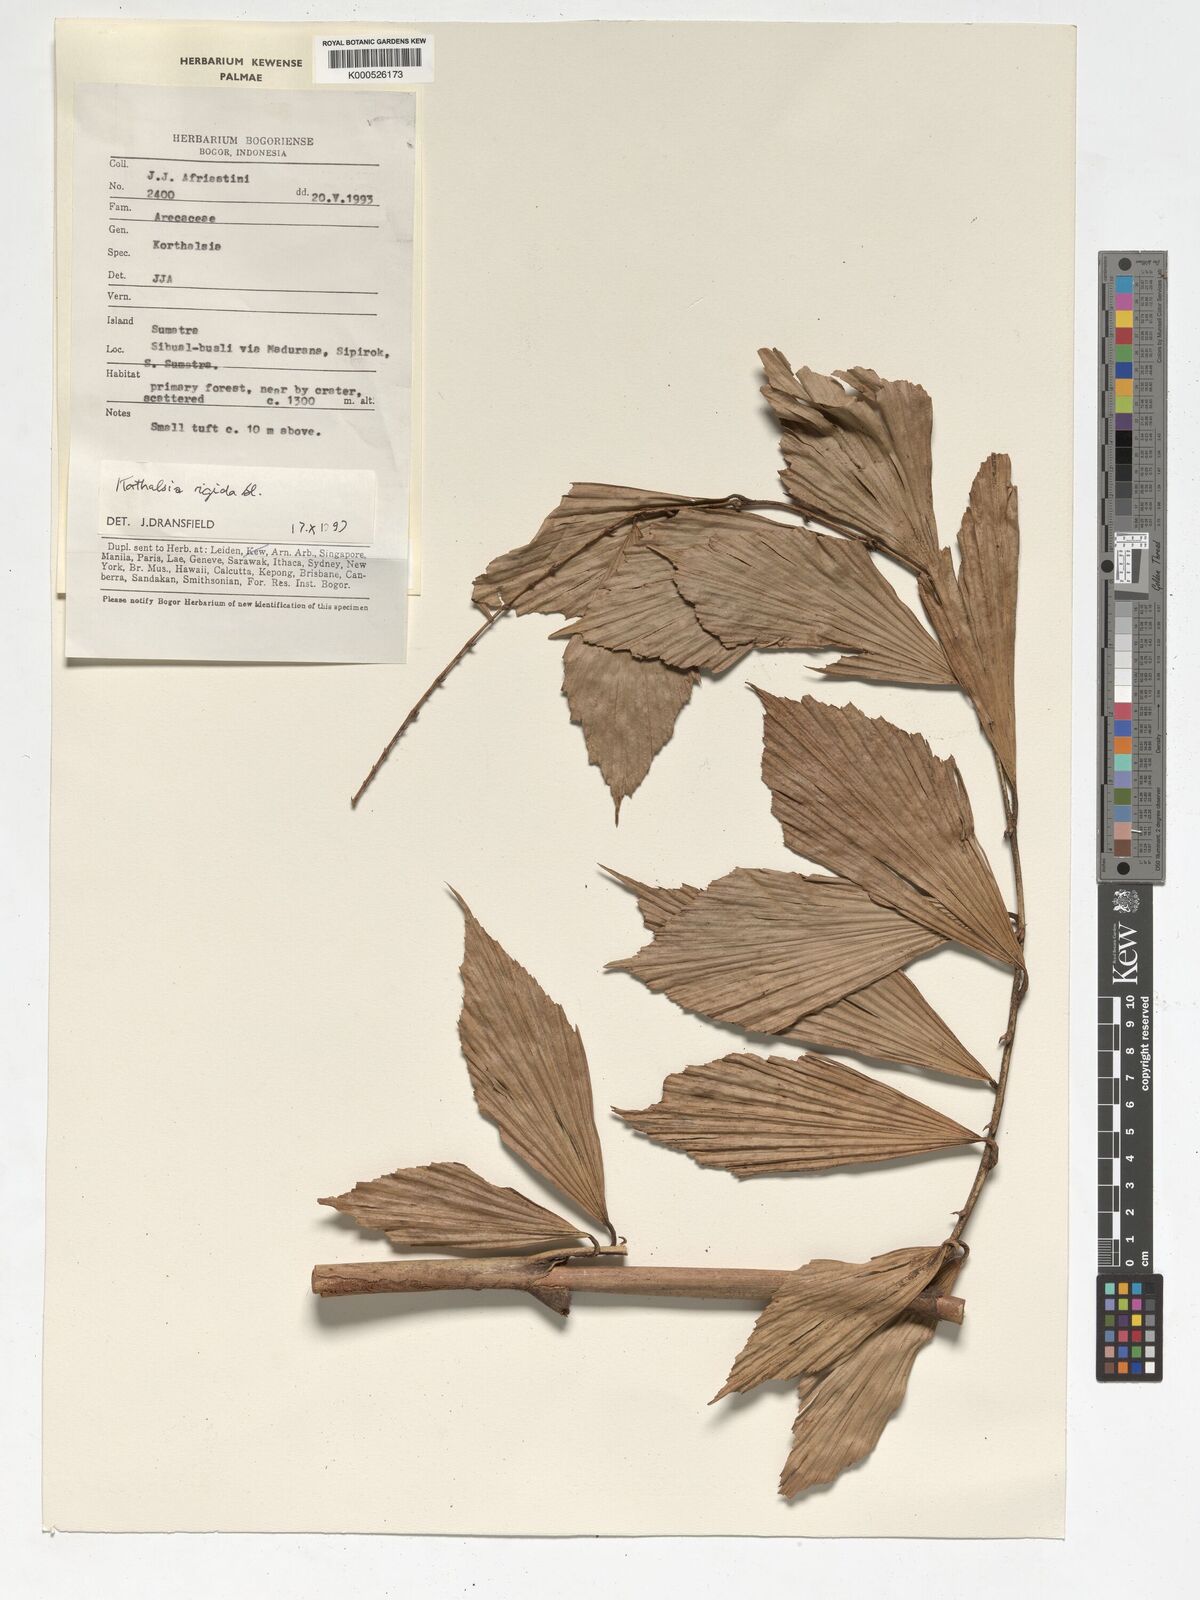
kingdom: Plantae
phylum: Tracheophyta
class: Liliopsida
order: Arecales
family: Arecaceae
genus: Korthalsia
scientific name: Korthalsia rigida
